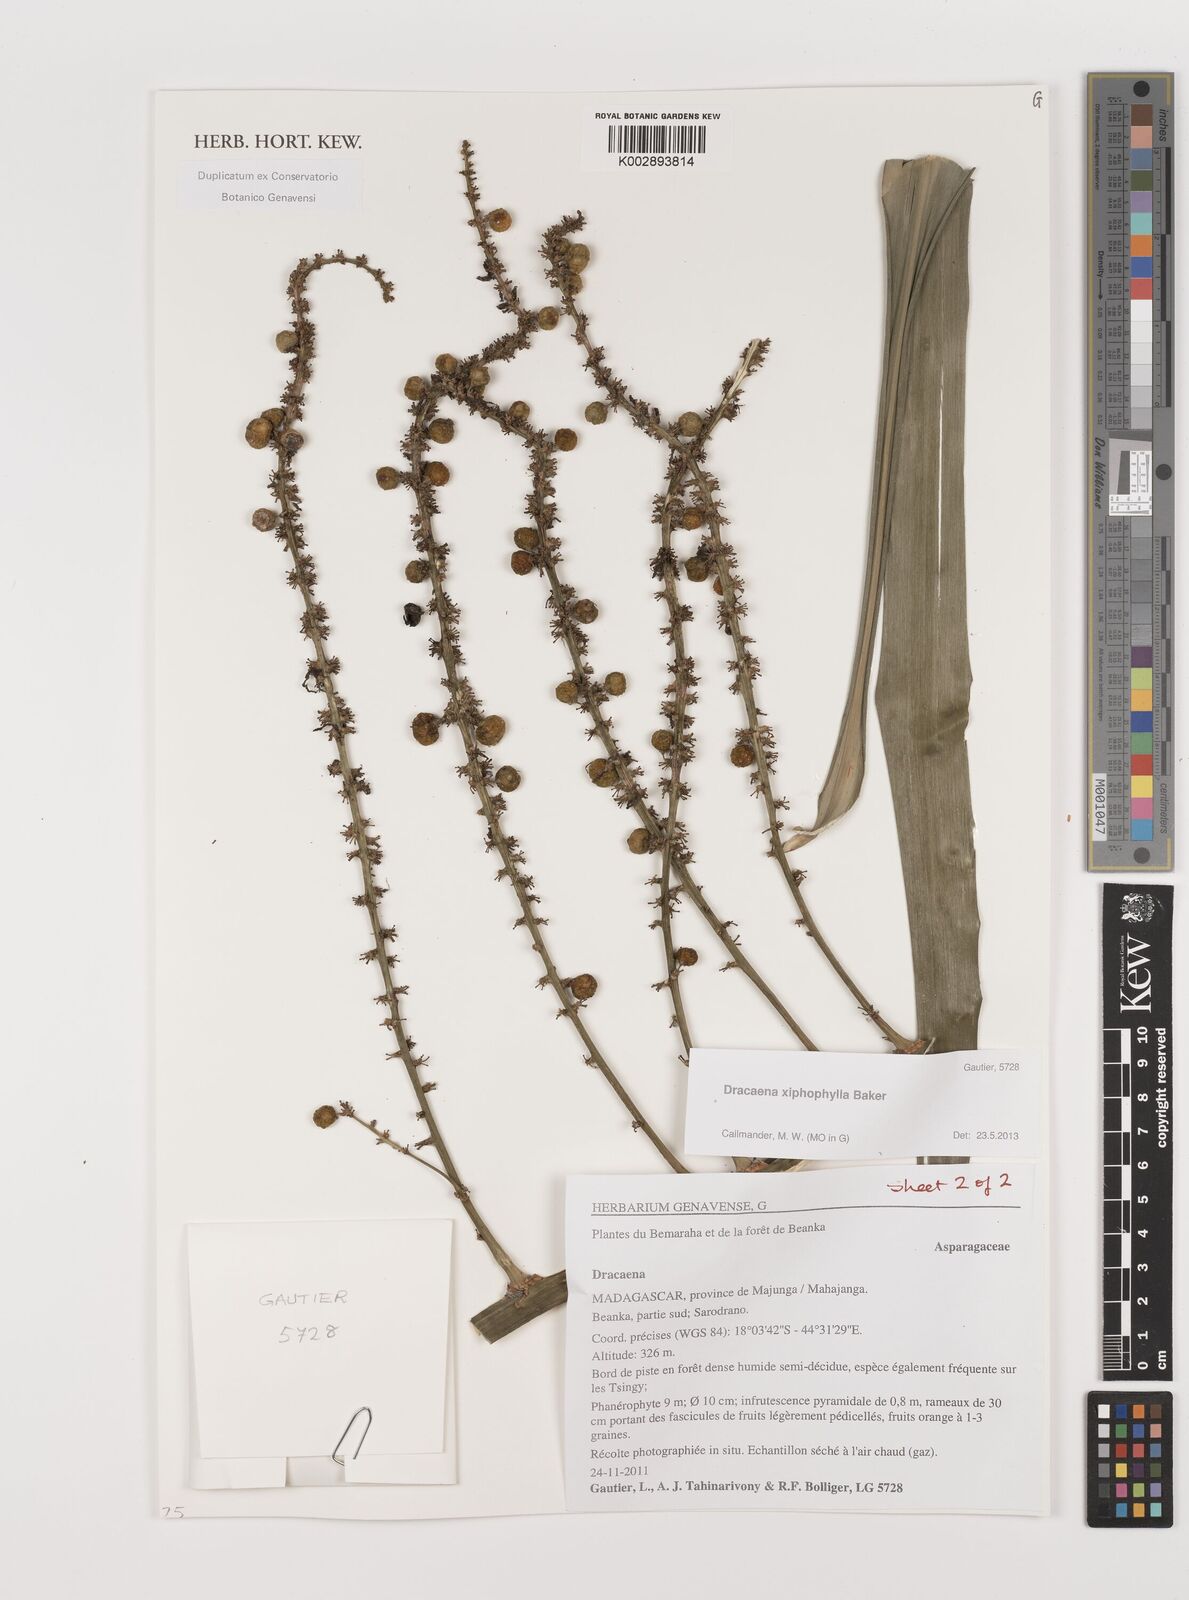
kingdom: Plantae
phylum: Tracheophyta
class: Liliopsida
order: Asparagales
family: Asparagaceae
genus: Dracaena
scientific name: Dracaena xiphophylla
